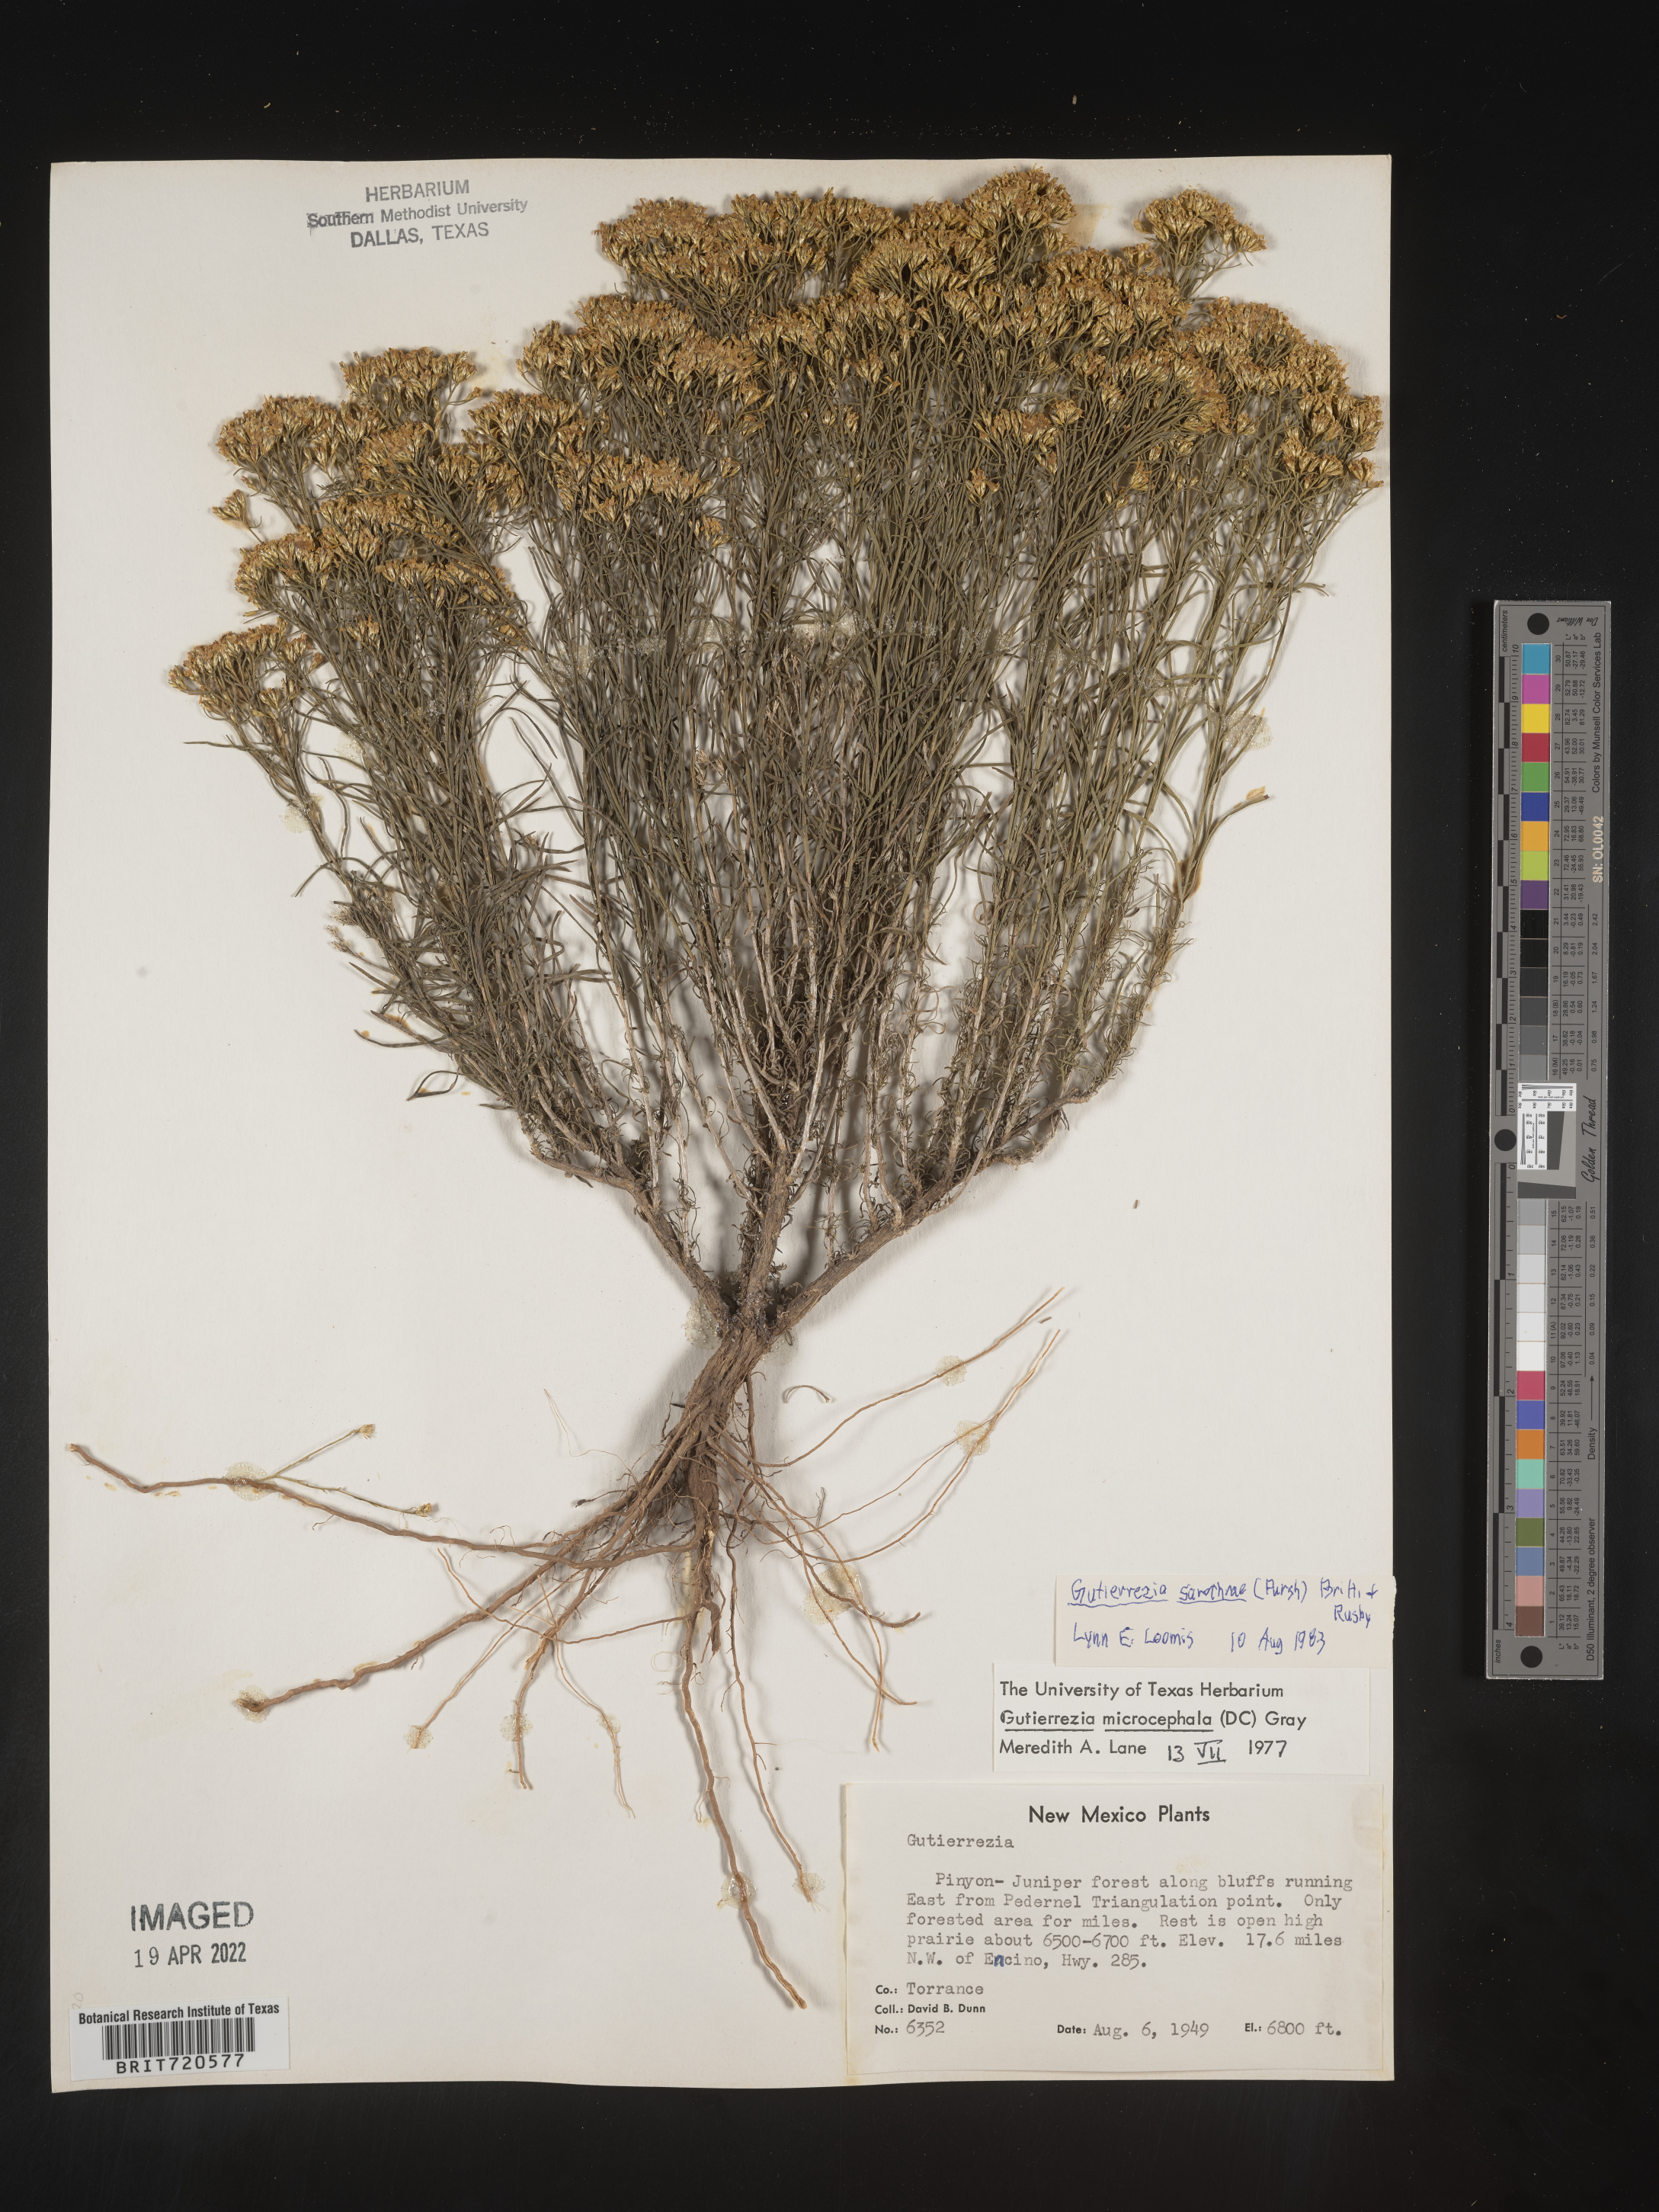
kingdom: Plantae
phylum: Tracheophyta
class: Magnoliopsida
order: Asterales
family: Asteraceae
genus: Gutierrezia
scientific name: Gutierrezia sarothrae
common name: Broom snakeweed
